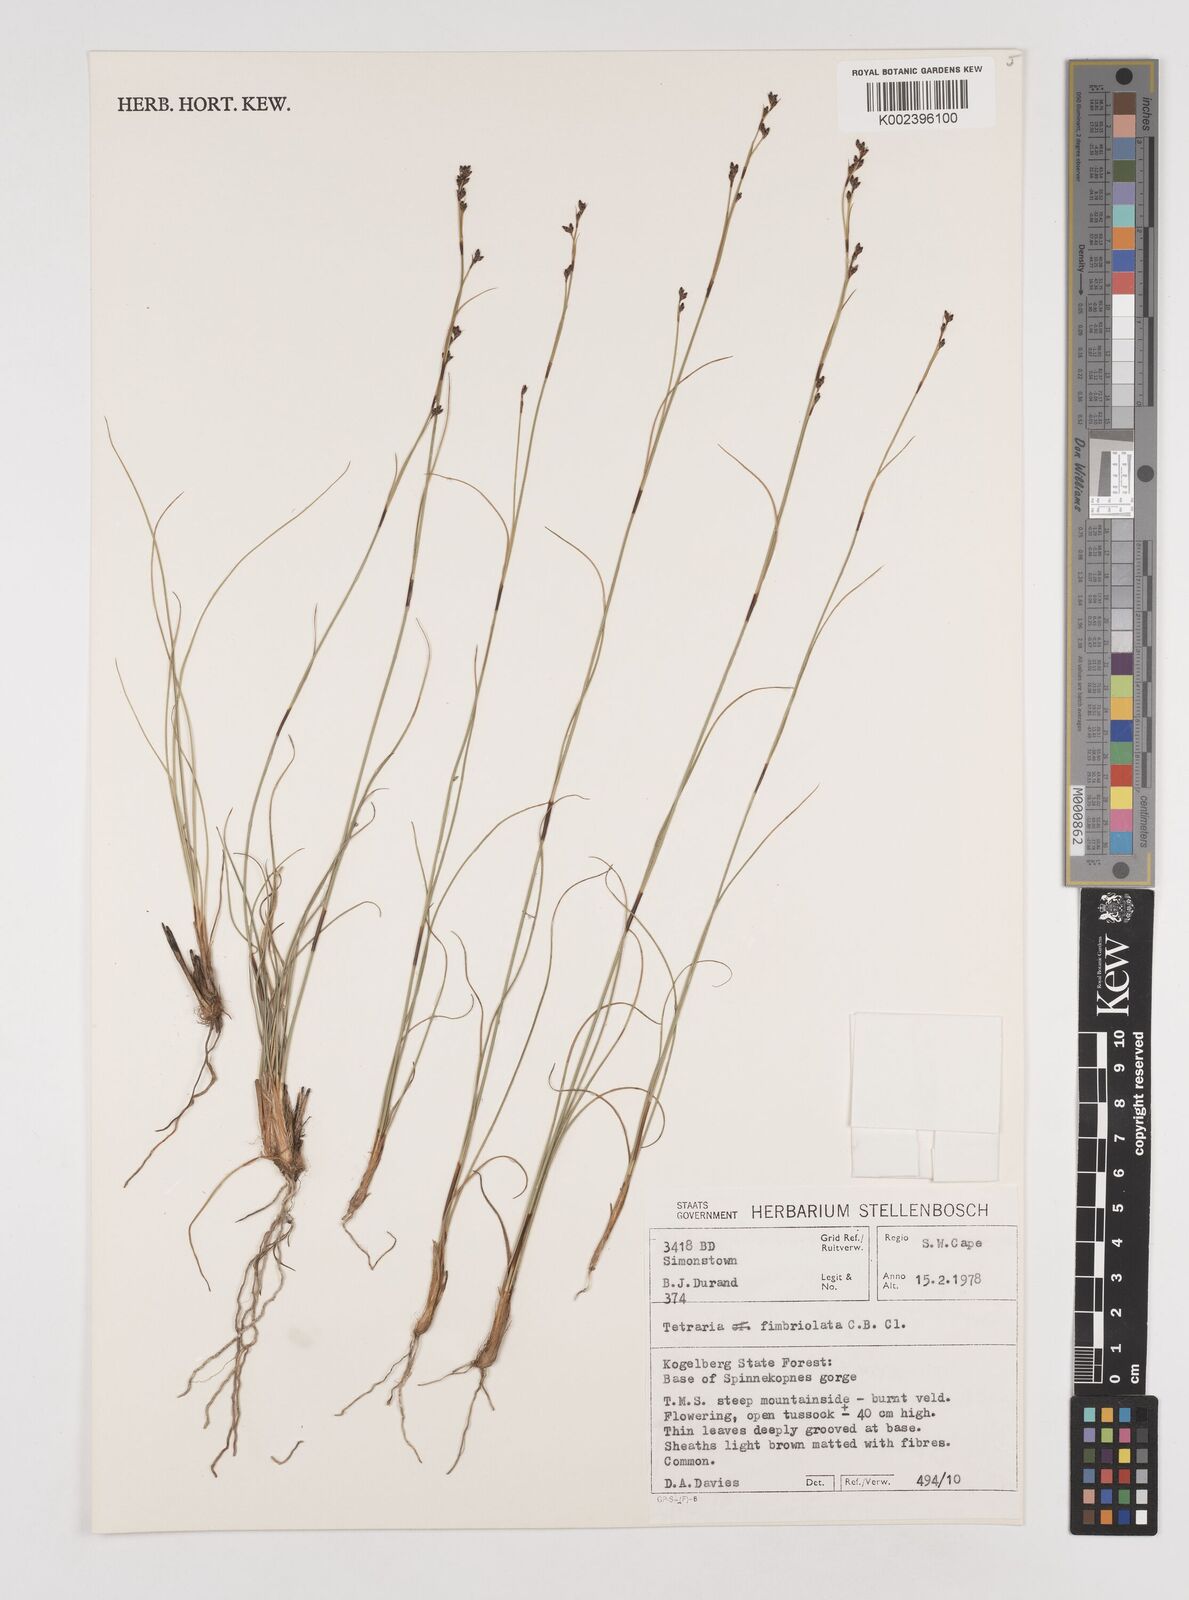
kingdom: Plantae
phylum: Tracheophyta
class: Liliopsida
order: Poales
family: Cyperaceae
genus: Tetraria
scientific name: Tetraria fimbriolata
